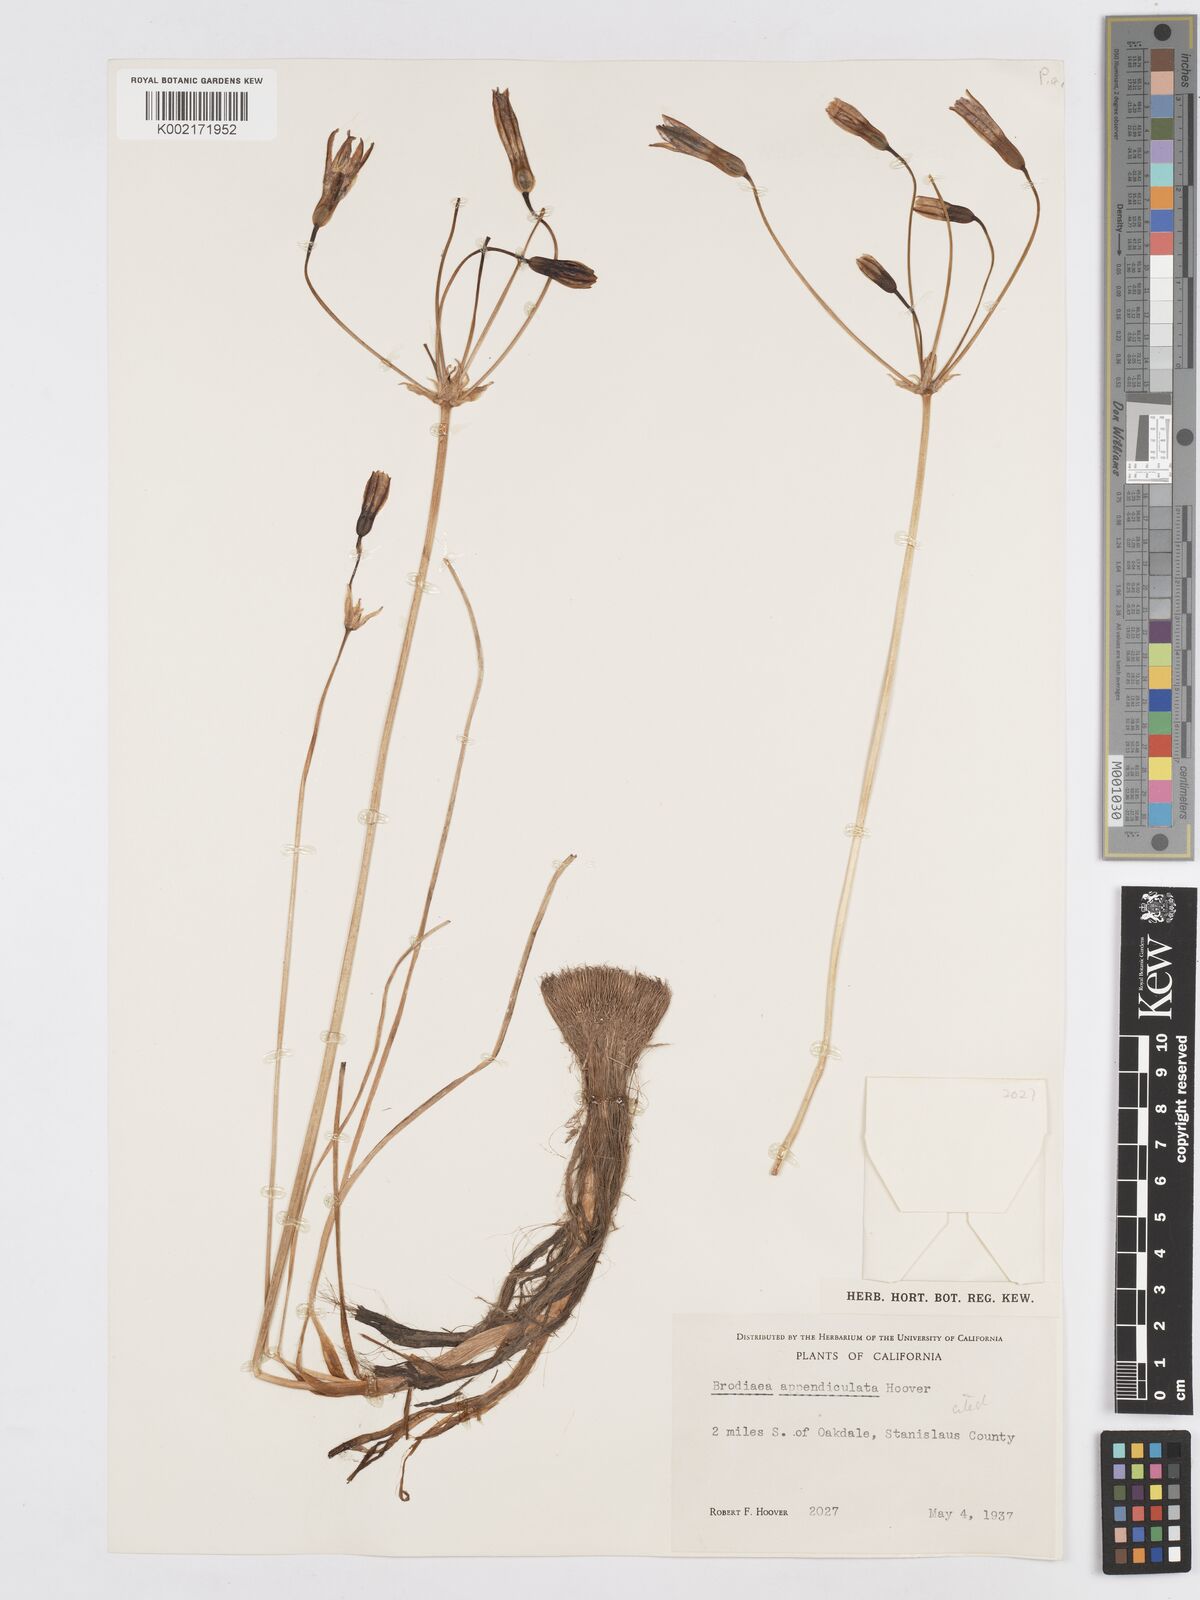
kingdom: Plantae
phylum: Tracheophyta
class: Liliopsida
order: Asparagales
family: Asparagaceae
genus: Brodiaea
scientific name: Brodiaea appendiculata
